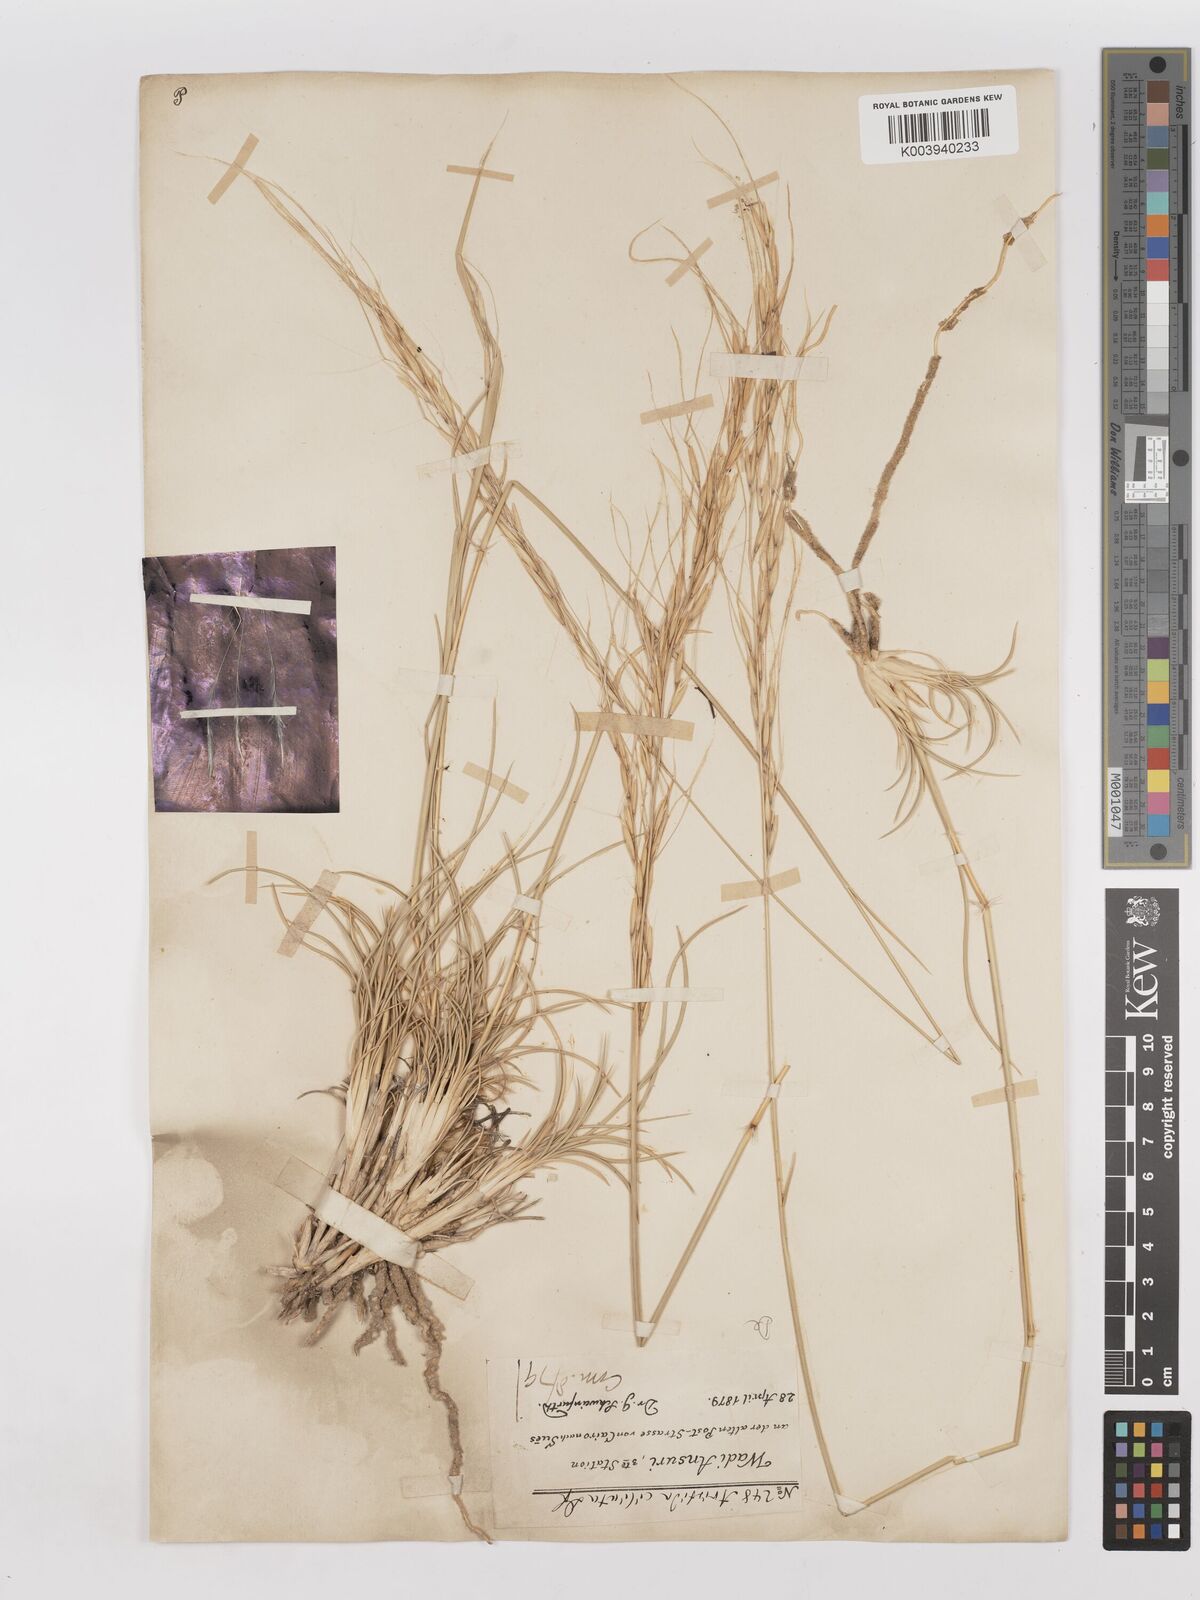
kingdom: Plantae
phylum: Tracheophyta
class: Liliopsida
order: Poales
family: Poaceae
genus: Stipagrostis
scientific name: Stipagrostis ciliata
